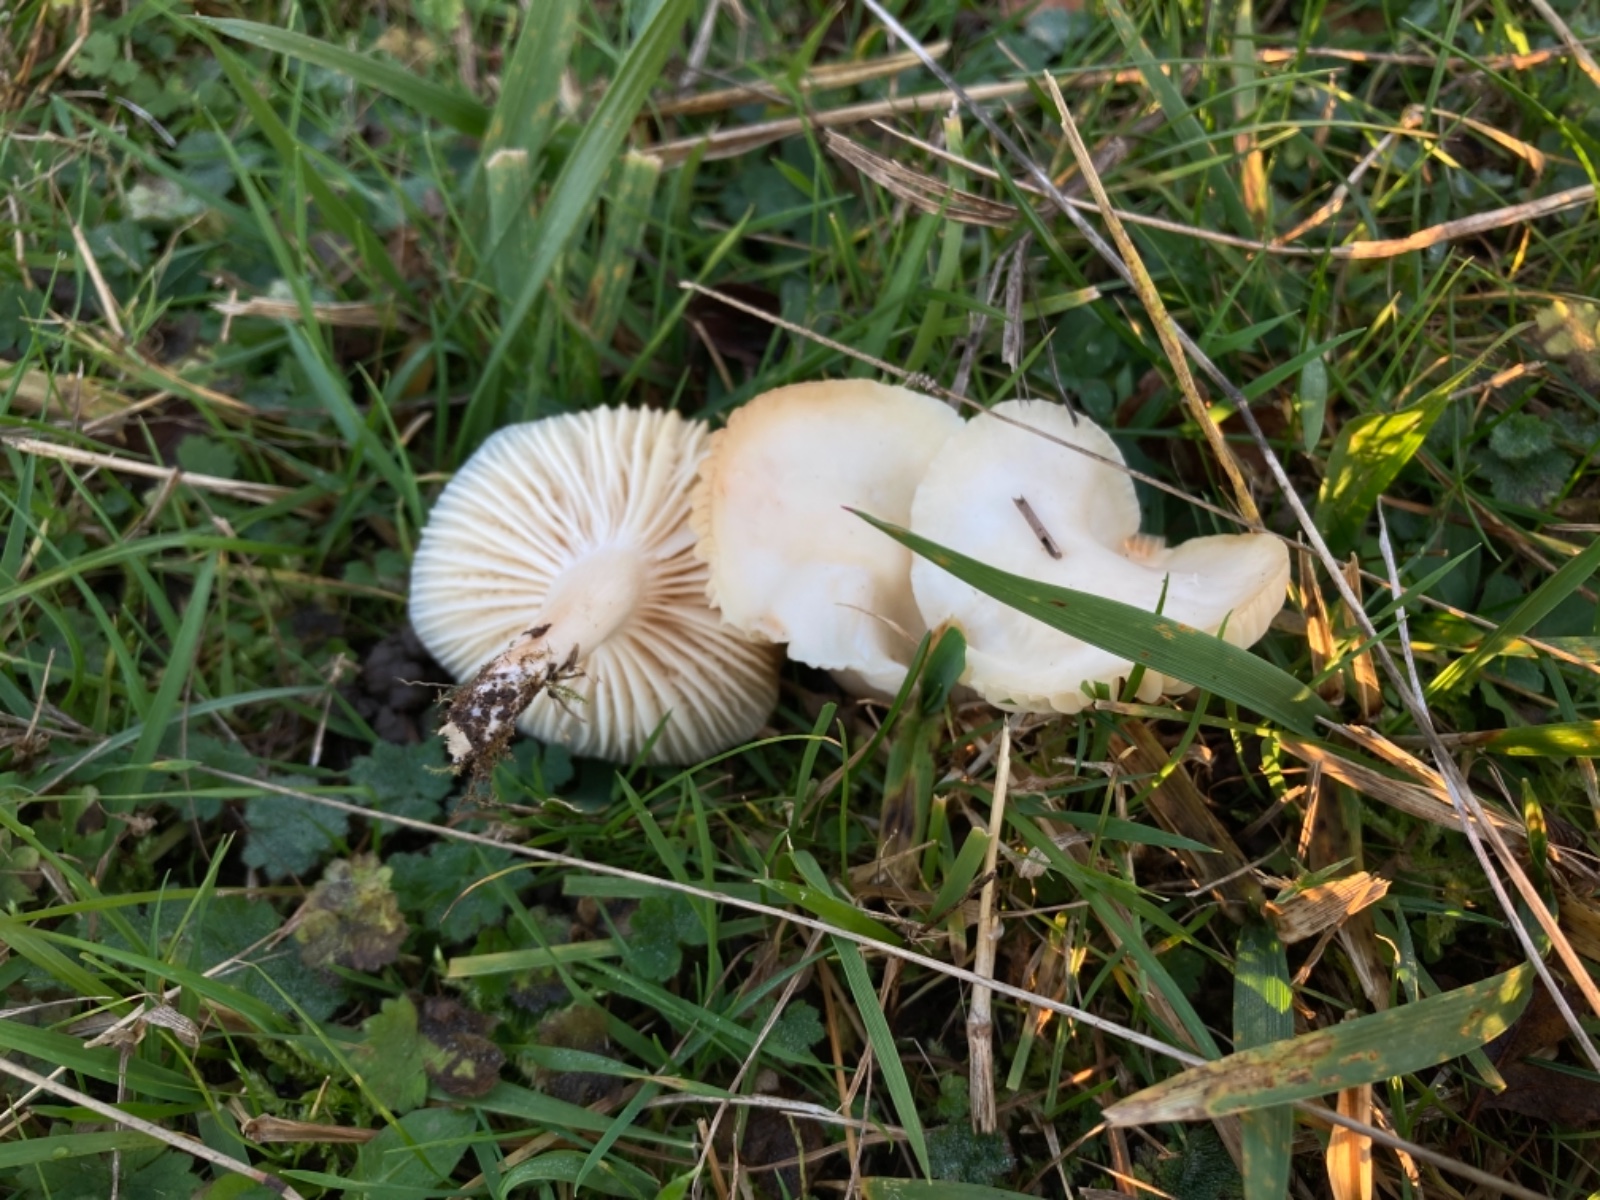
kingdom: Fungi
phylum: Basidiomycota
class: Agaricomycetes
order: Agaricales
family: Hygrophoraceae
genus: Cuphophyllus
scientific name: Cuphophyllus virgineus
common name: snehvid vokshat
